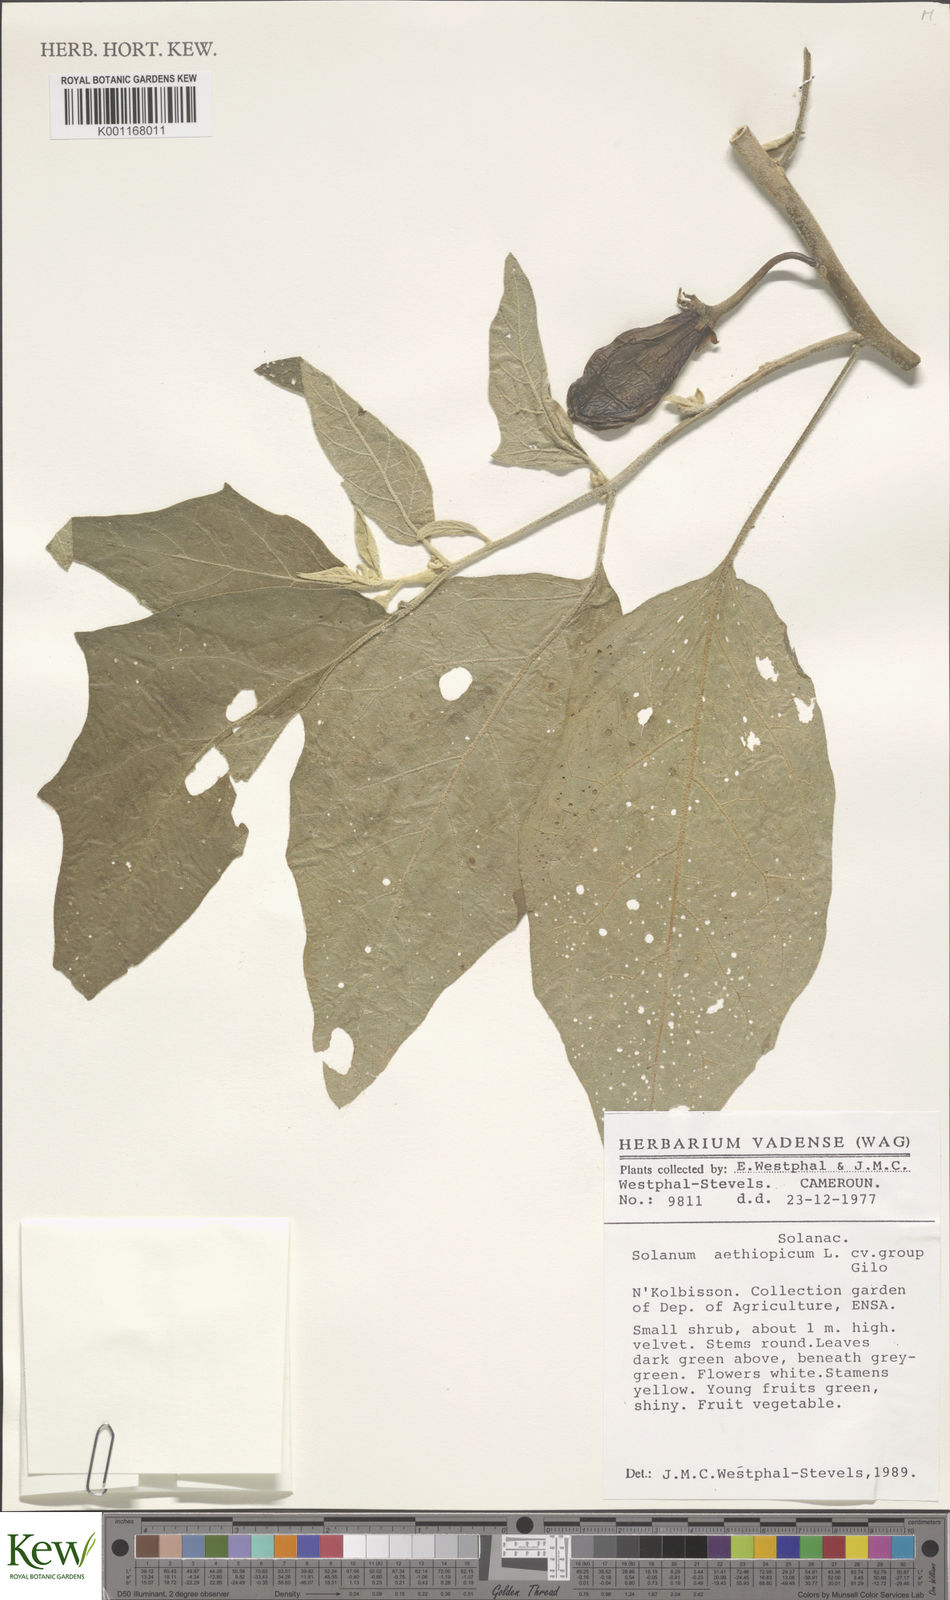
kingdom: Plantae
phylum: Tracheophyta
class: Magnoliopsida
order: Solanales
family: Solanaceae
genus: Solanum
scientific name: Solanum aethiopicum
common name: Gilo
